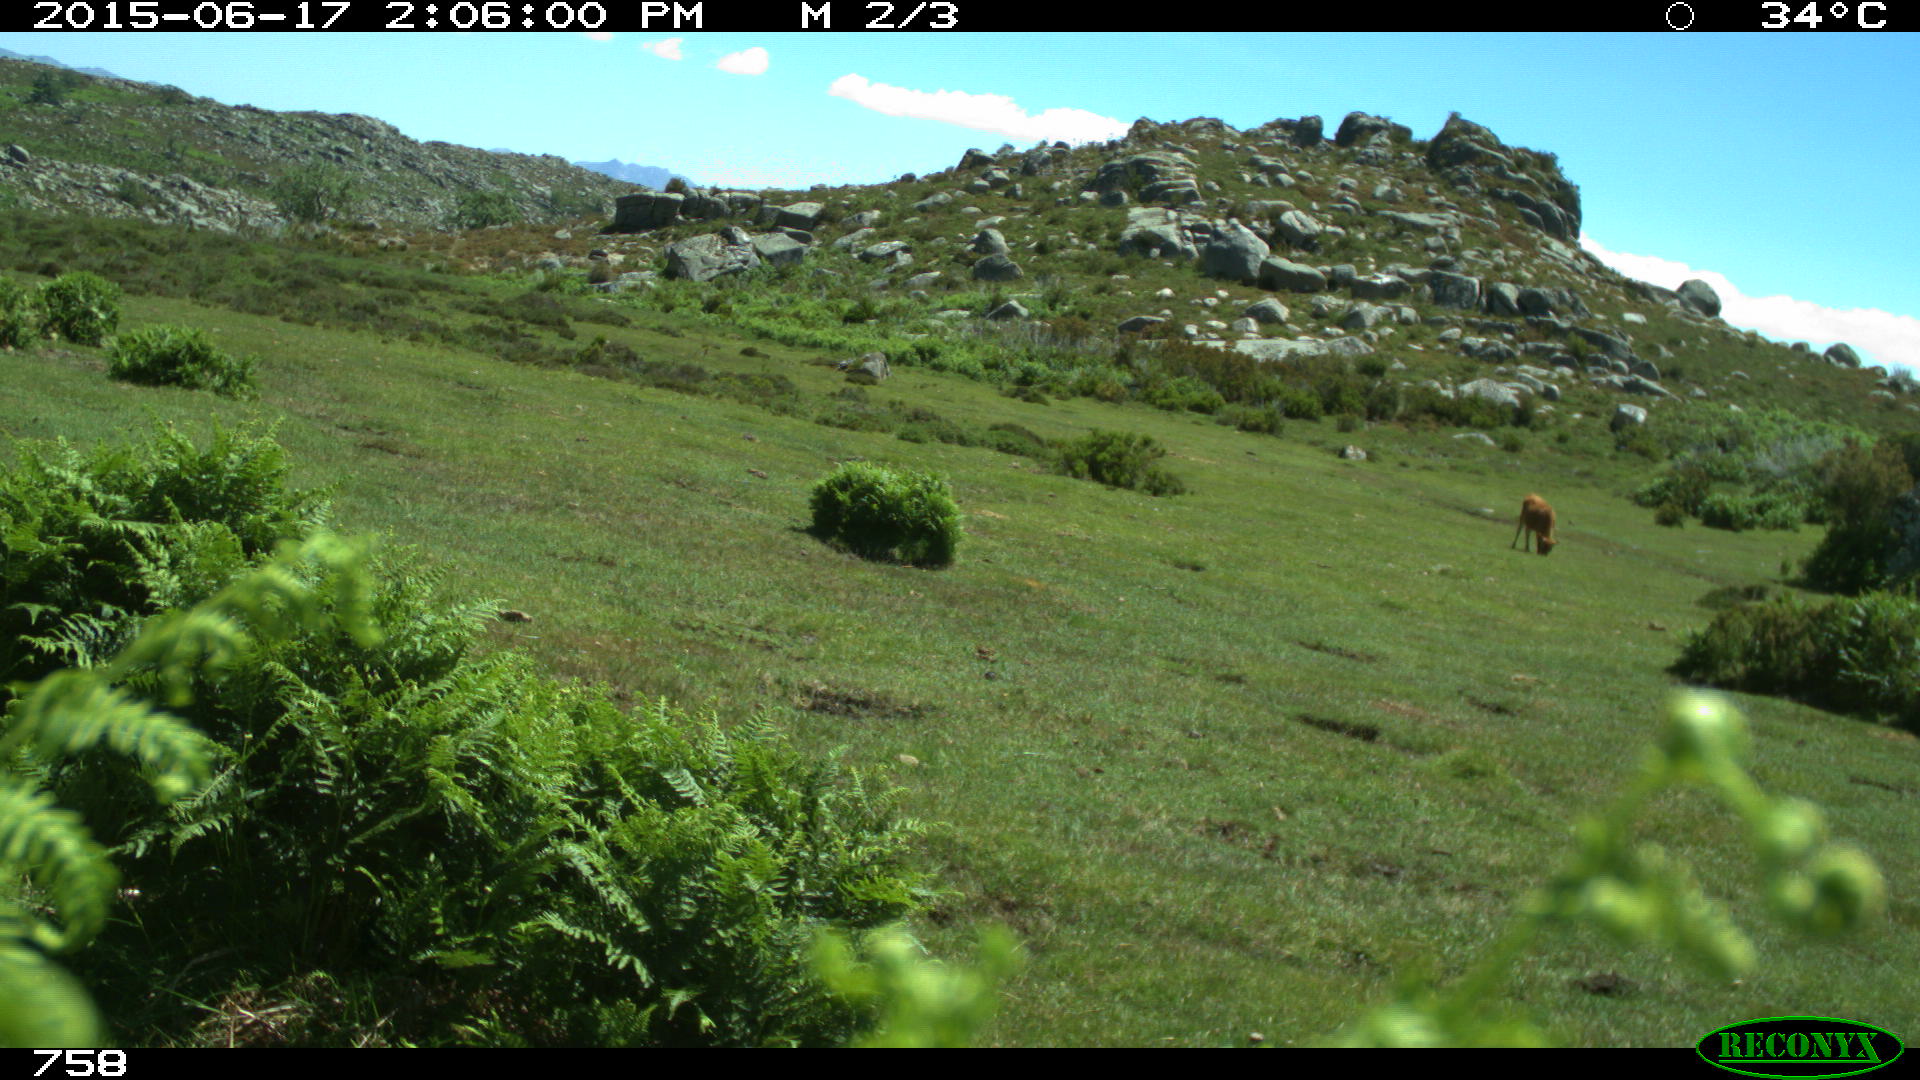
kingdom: Animalia
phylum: Chordata
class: Mammalia
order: Artiodactyla
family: Bovidae
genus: Bos
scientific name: Bos taurus
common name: Domesticated cattle
